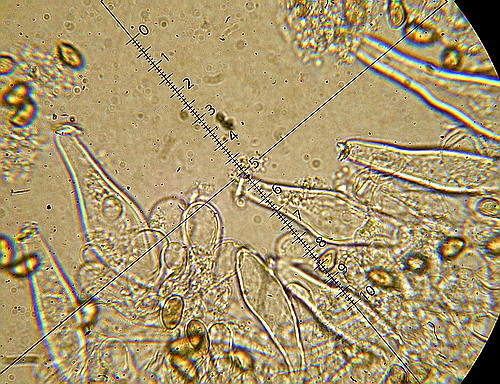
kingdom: Fungi
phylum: Basidiomycota
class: Agaricomycetes
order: Agaricales
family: Inocybaceae
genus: Inocybe
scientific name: Inocybe sindonia
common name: bleg trævlhat
